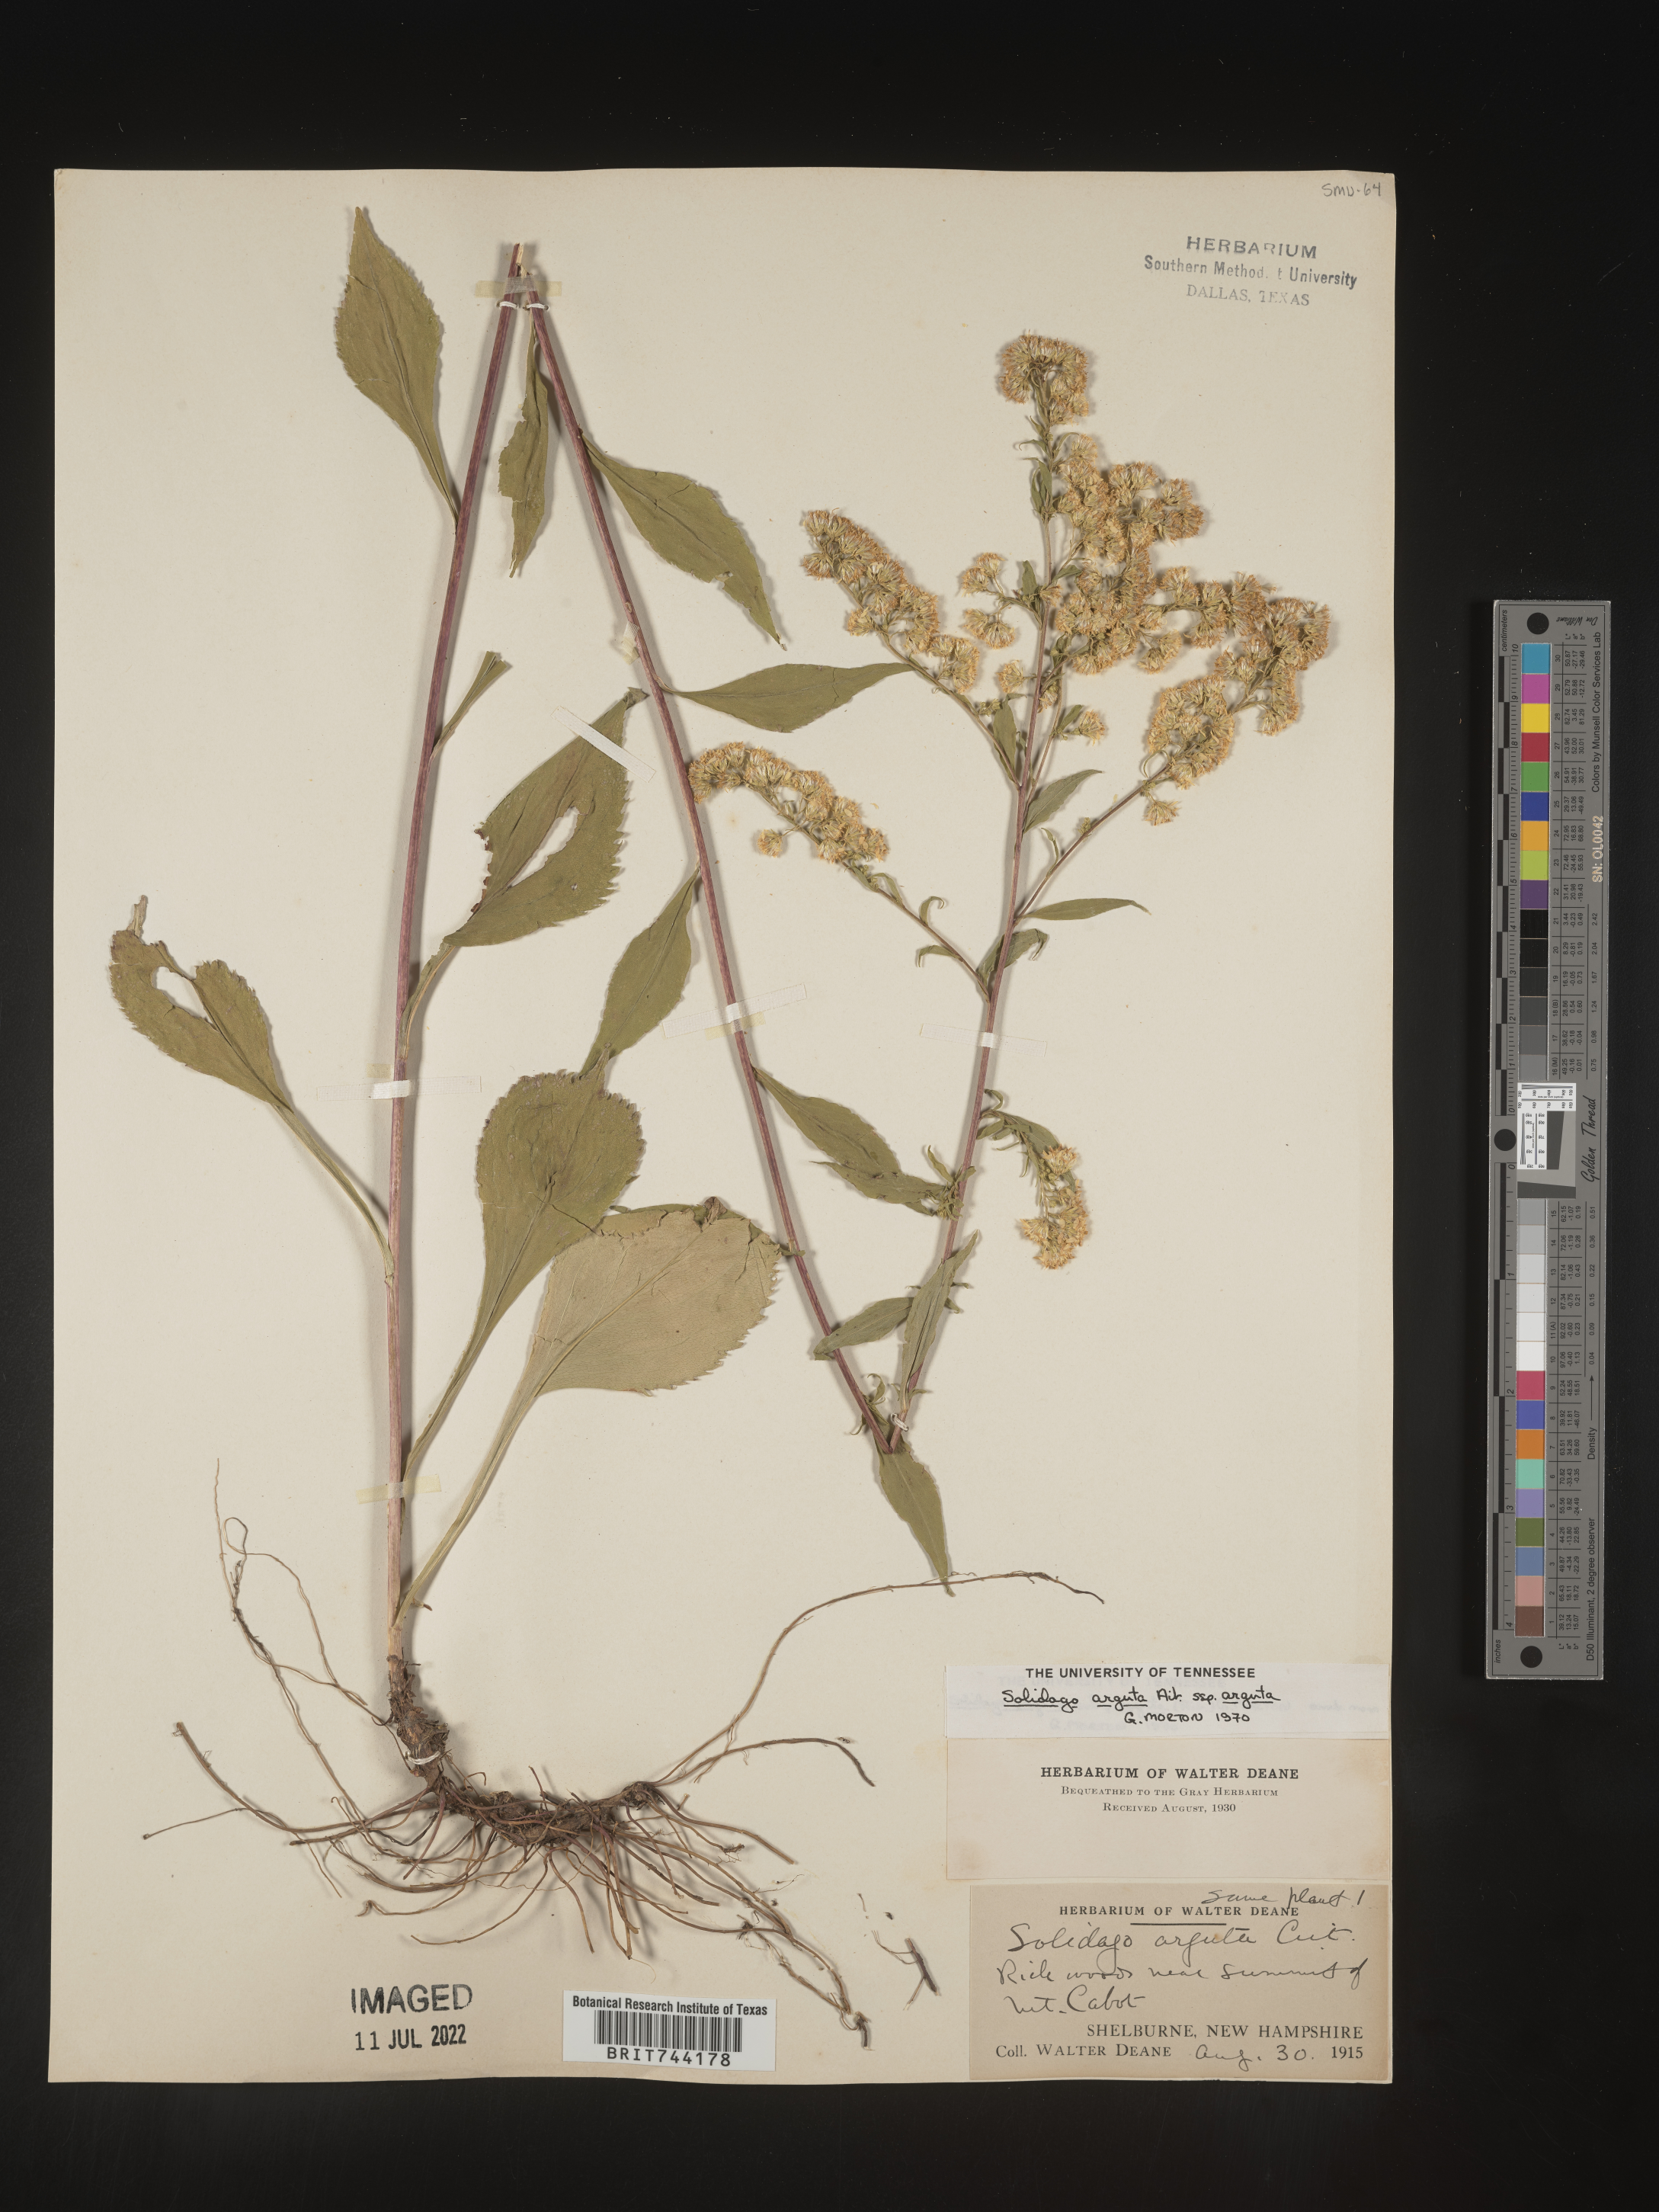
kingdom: Plantae
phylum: Tracheophyta
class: Magnoliopsida
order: Asterales
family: Asteraceae
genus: Solidago
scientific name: Solidago arguta
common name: Atlantic goldenrod
